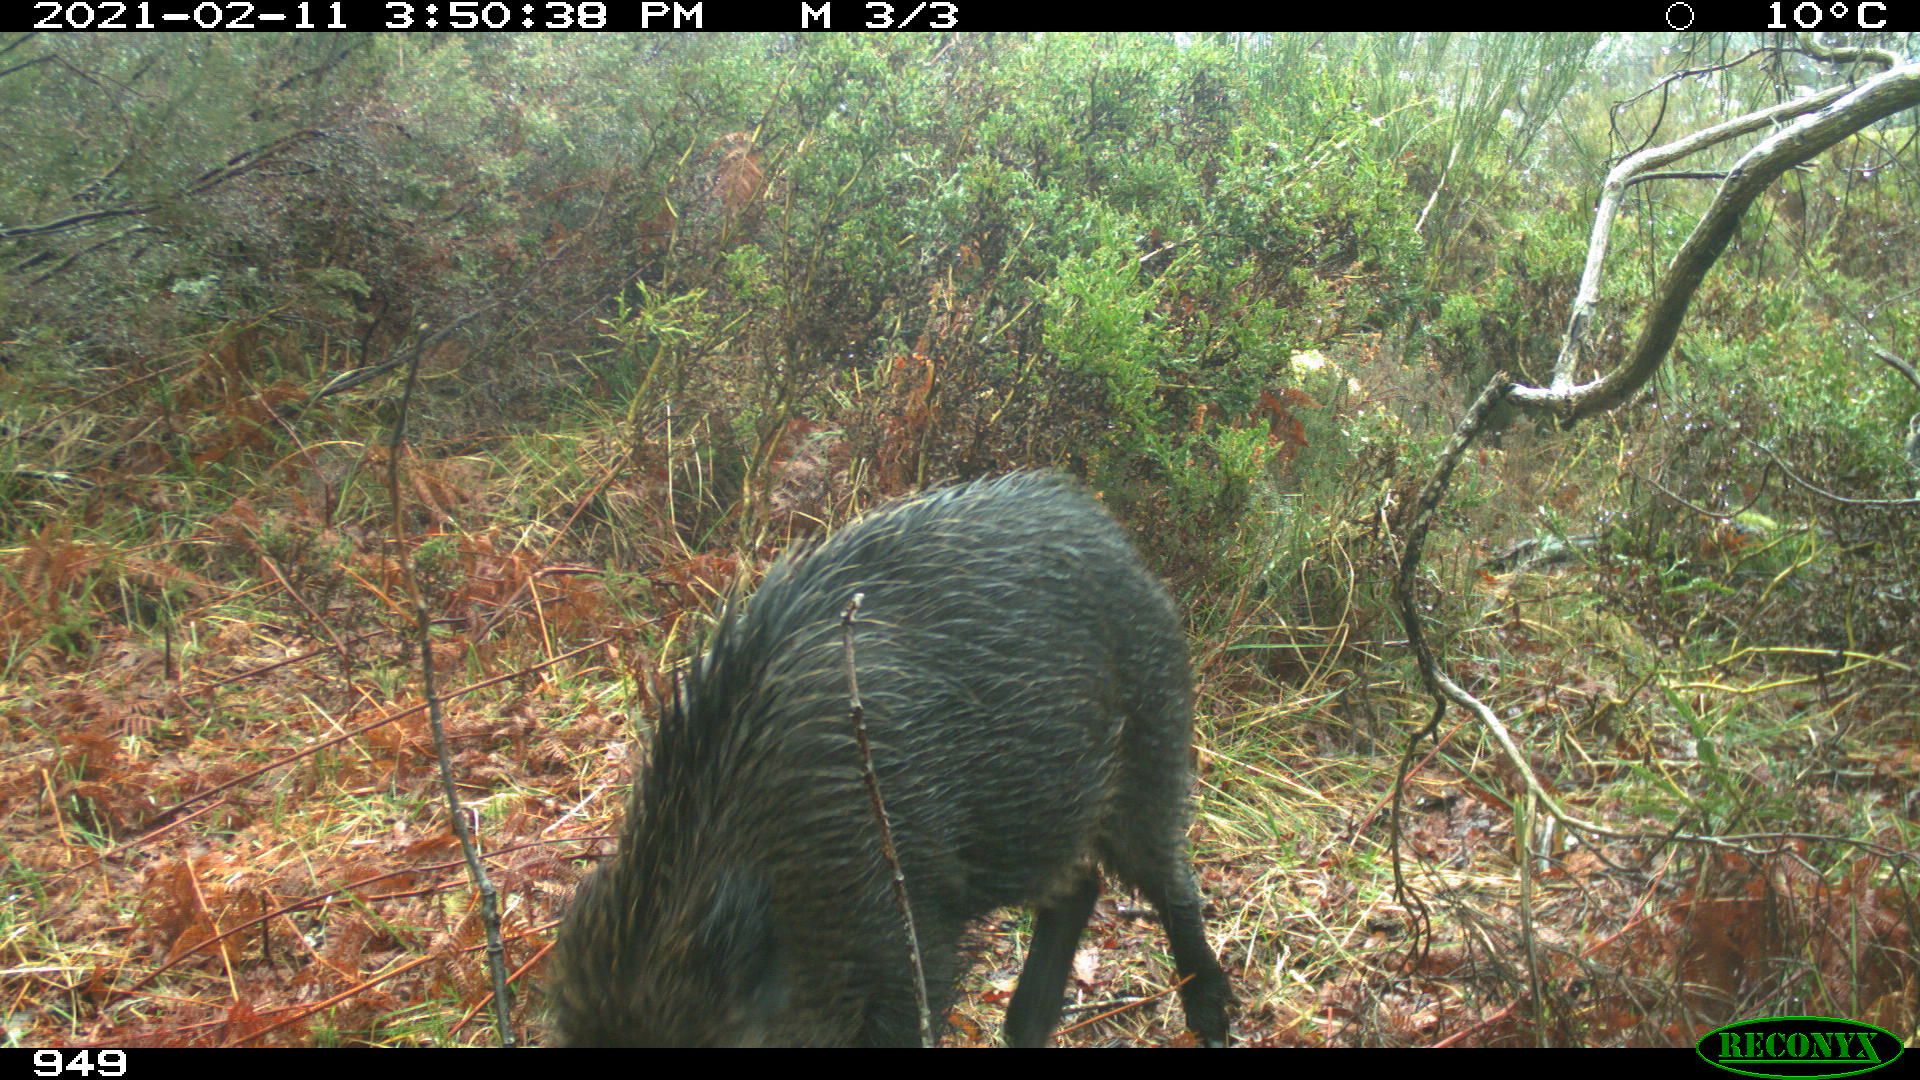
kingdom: Animalia
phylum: Chordata
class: Mammalia
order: Artiodactyla
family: Suidae
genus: Sus
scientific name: Sus scrofa
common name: Wild boar
